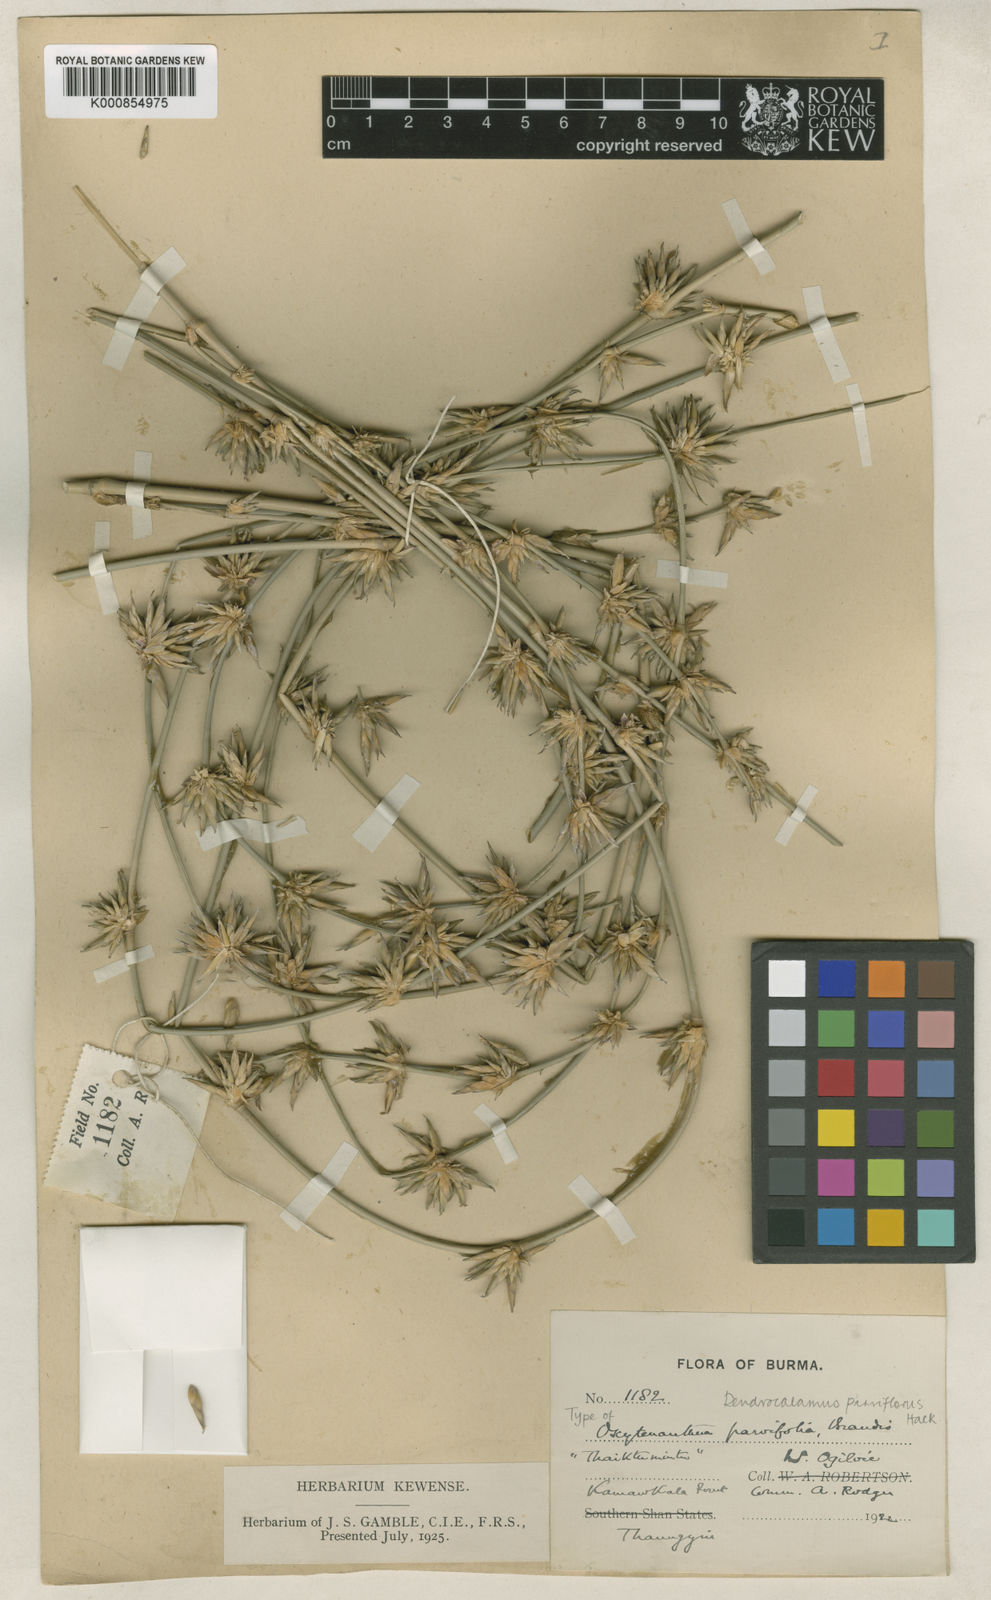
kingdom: Plantae
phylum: Tracheophyta
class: Liliopsida
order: Poales
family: Poaceae
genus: Dendrocalamus
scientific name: Dendrocalamus merrillianus
